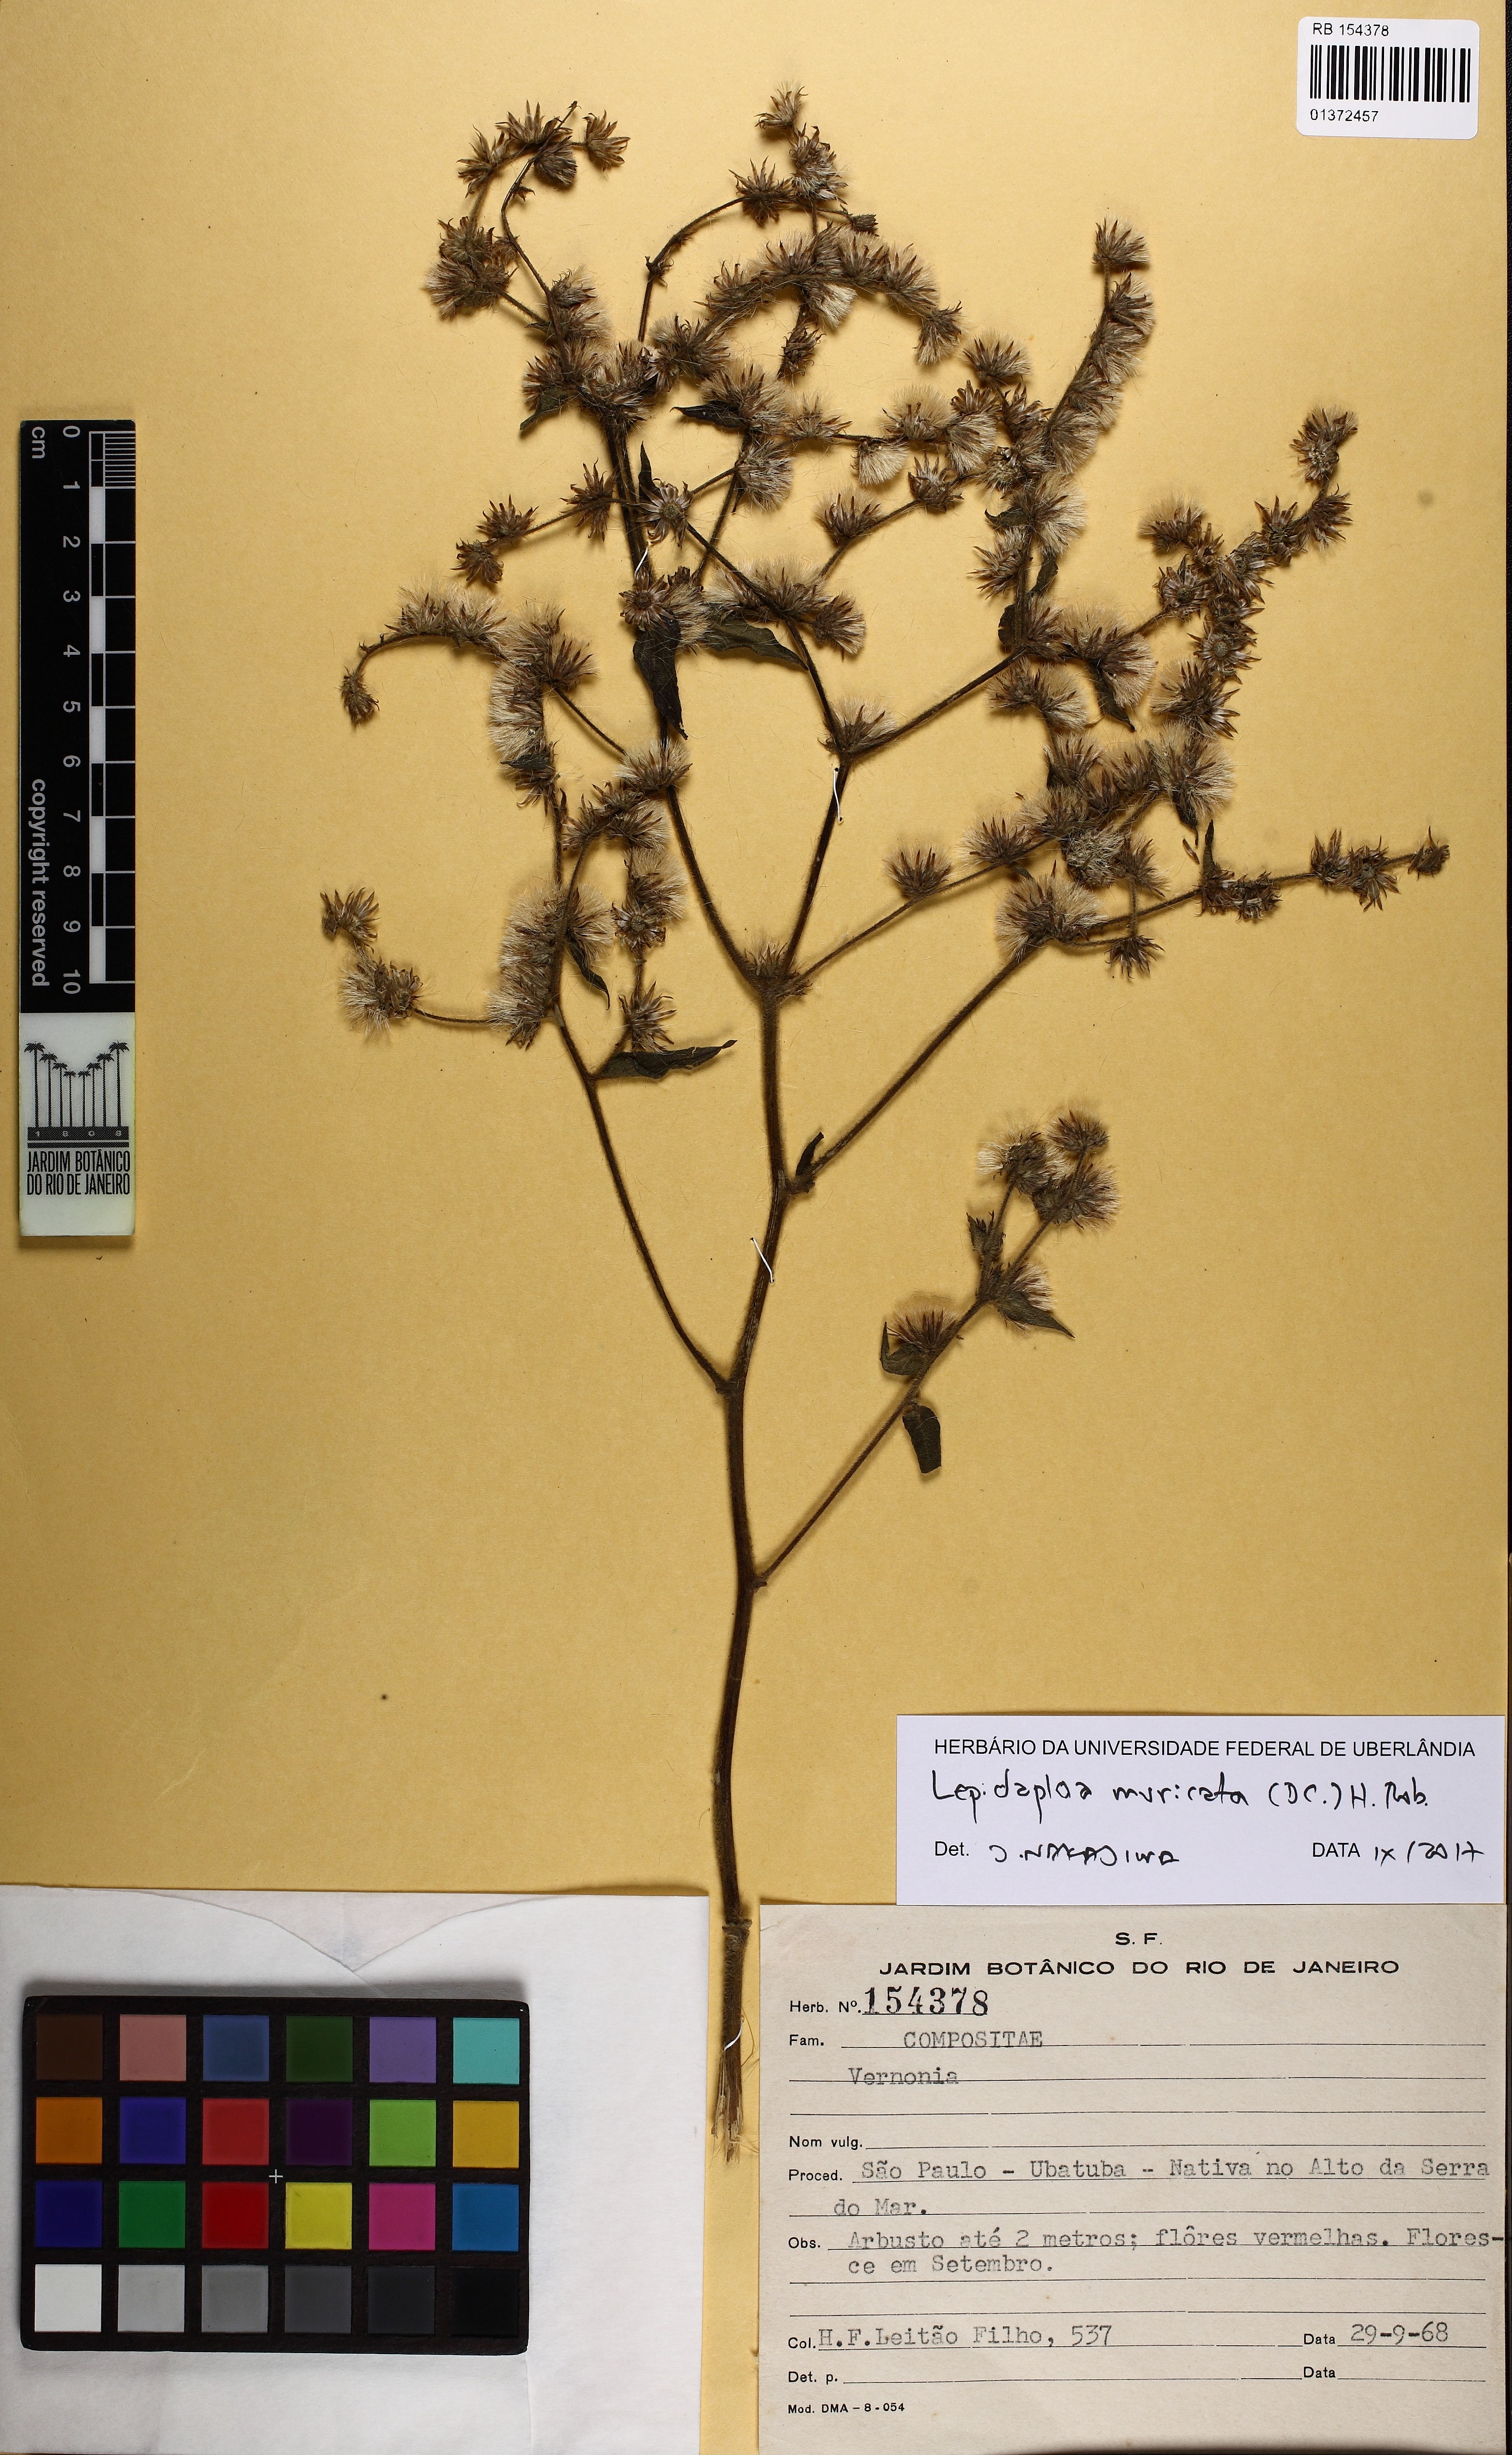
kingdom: Plantae
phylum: Tracheophyta
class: Magnoliopsida
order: Asterales
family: Asteraceae
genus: Lepidaploa
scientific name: Lepidaploa muricata
